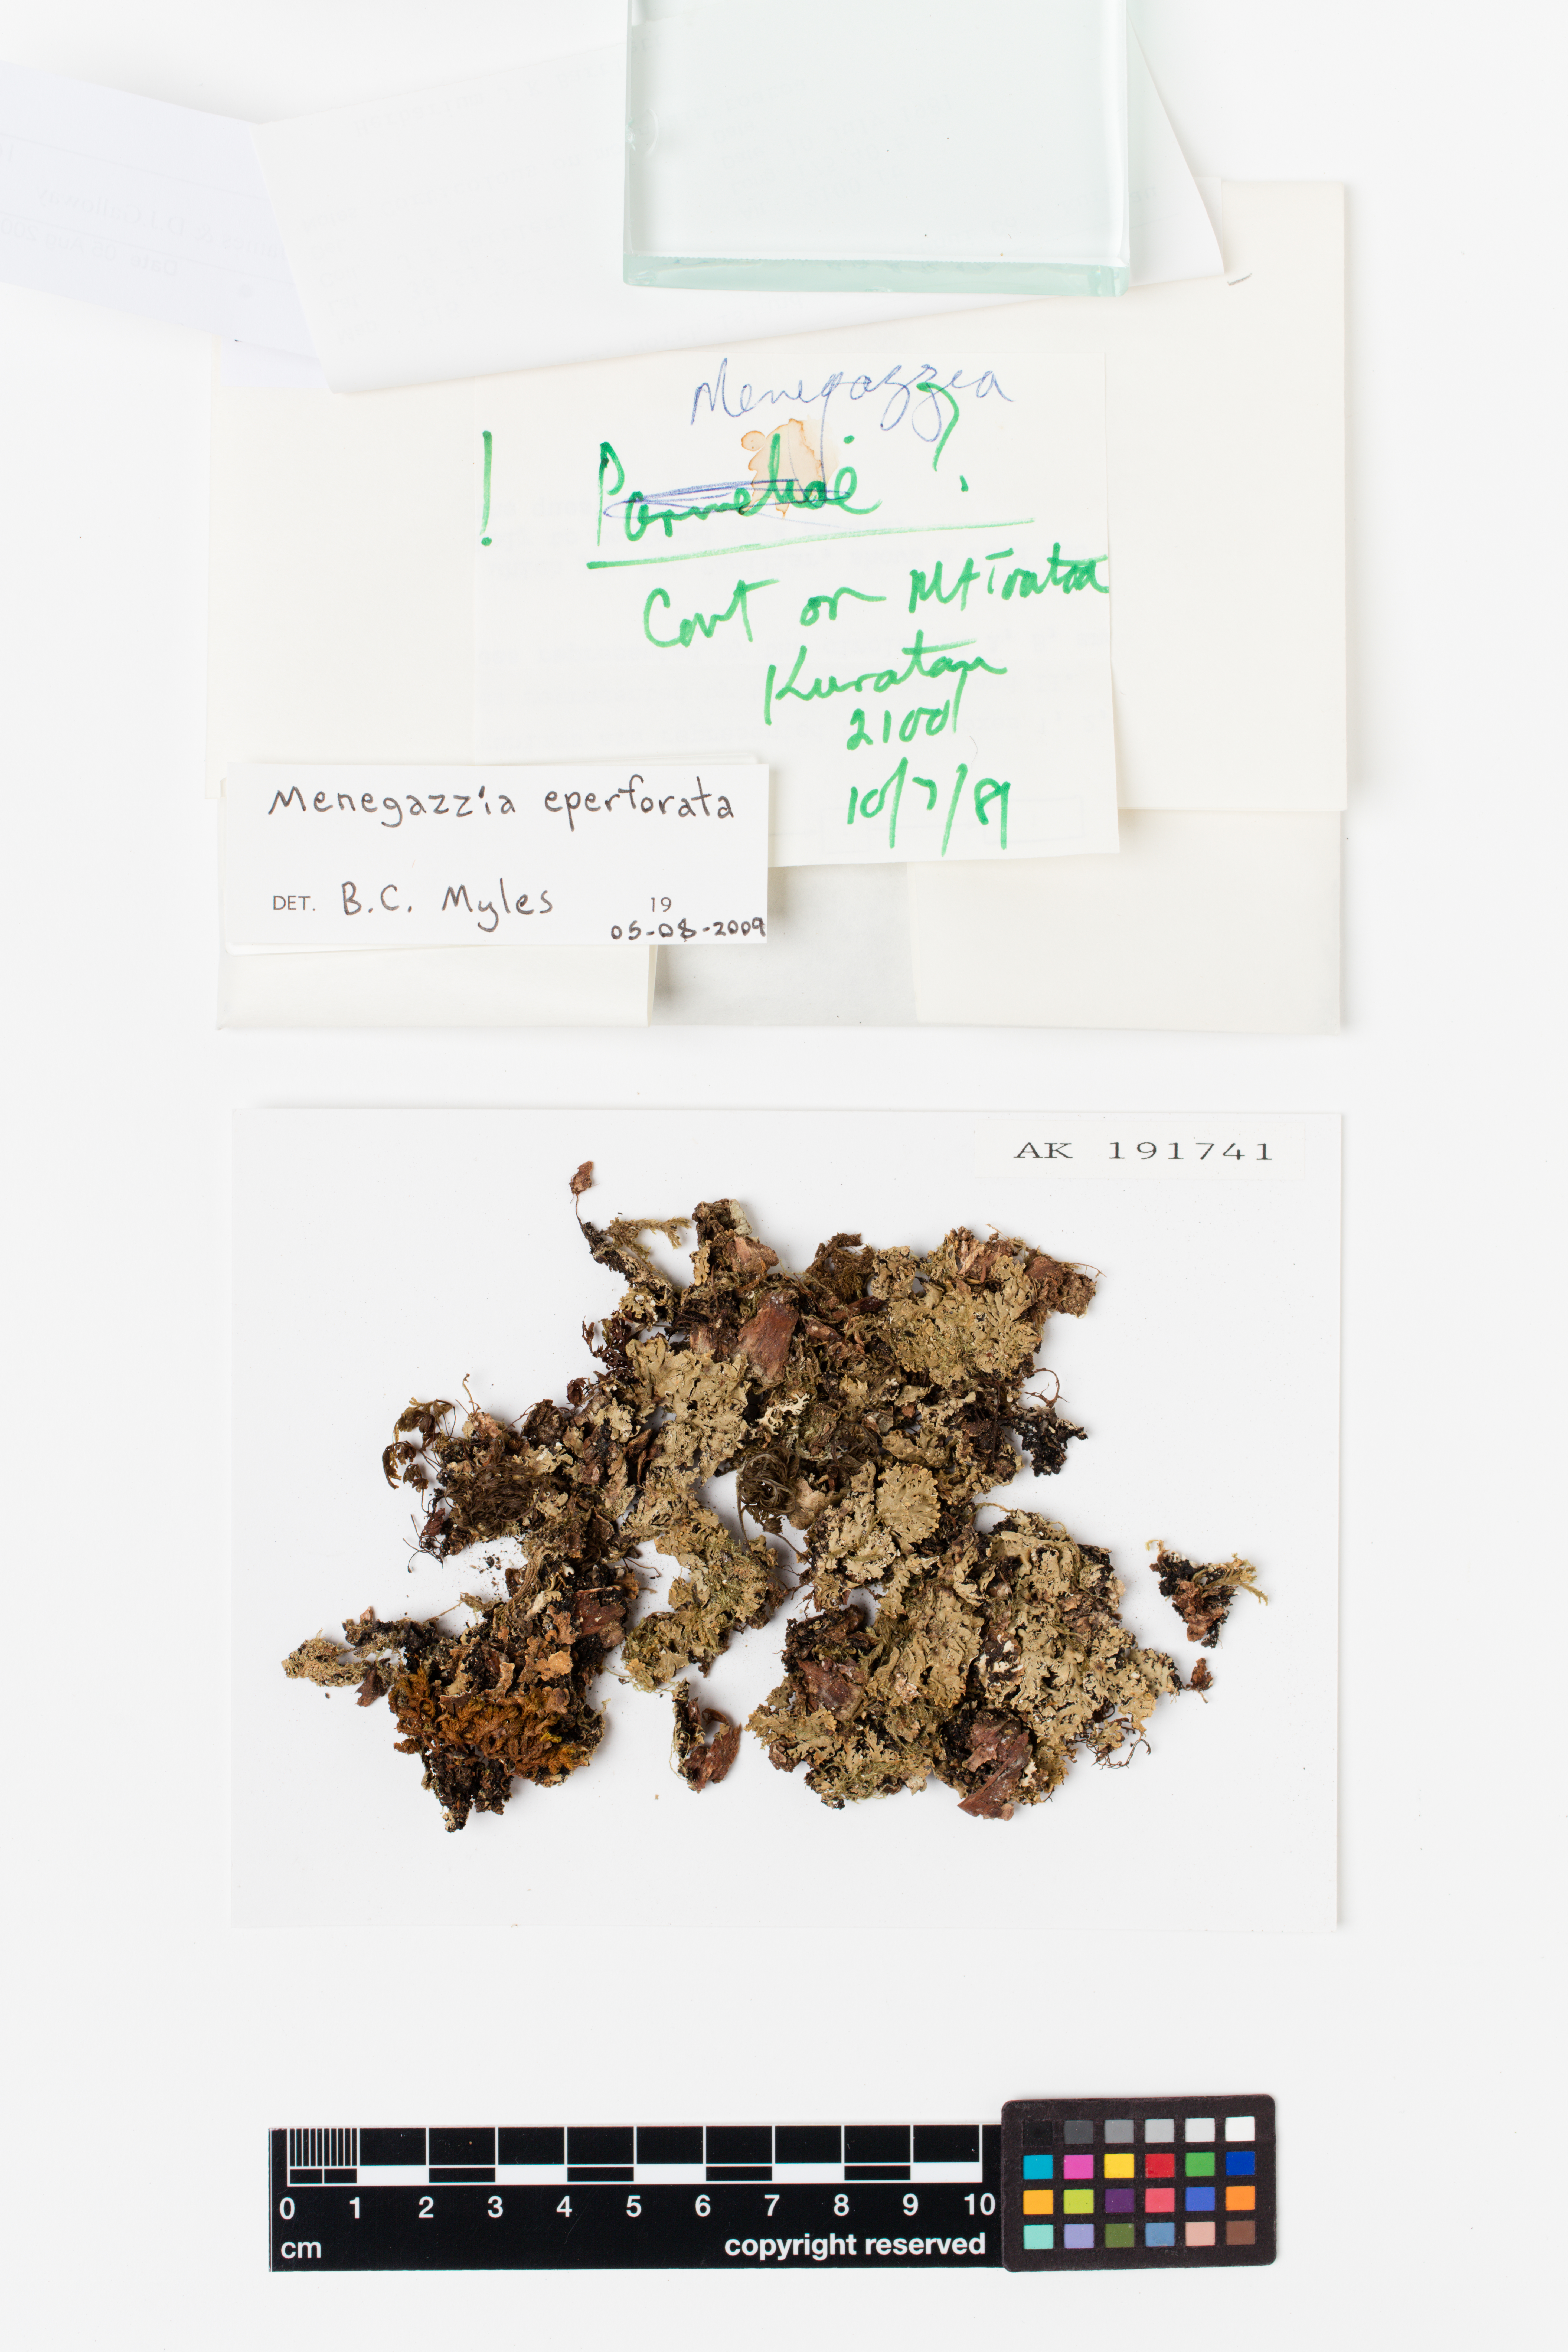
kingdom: Fungi
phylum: Ascomycota
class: Lecanoromycetes
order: Lecanorales
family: Parmeliaceae
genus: Menegazzia
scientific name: Menegazzia eperforata
